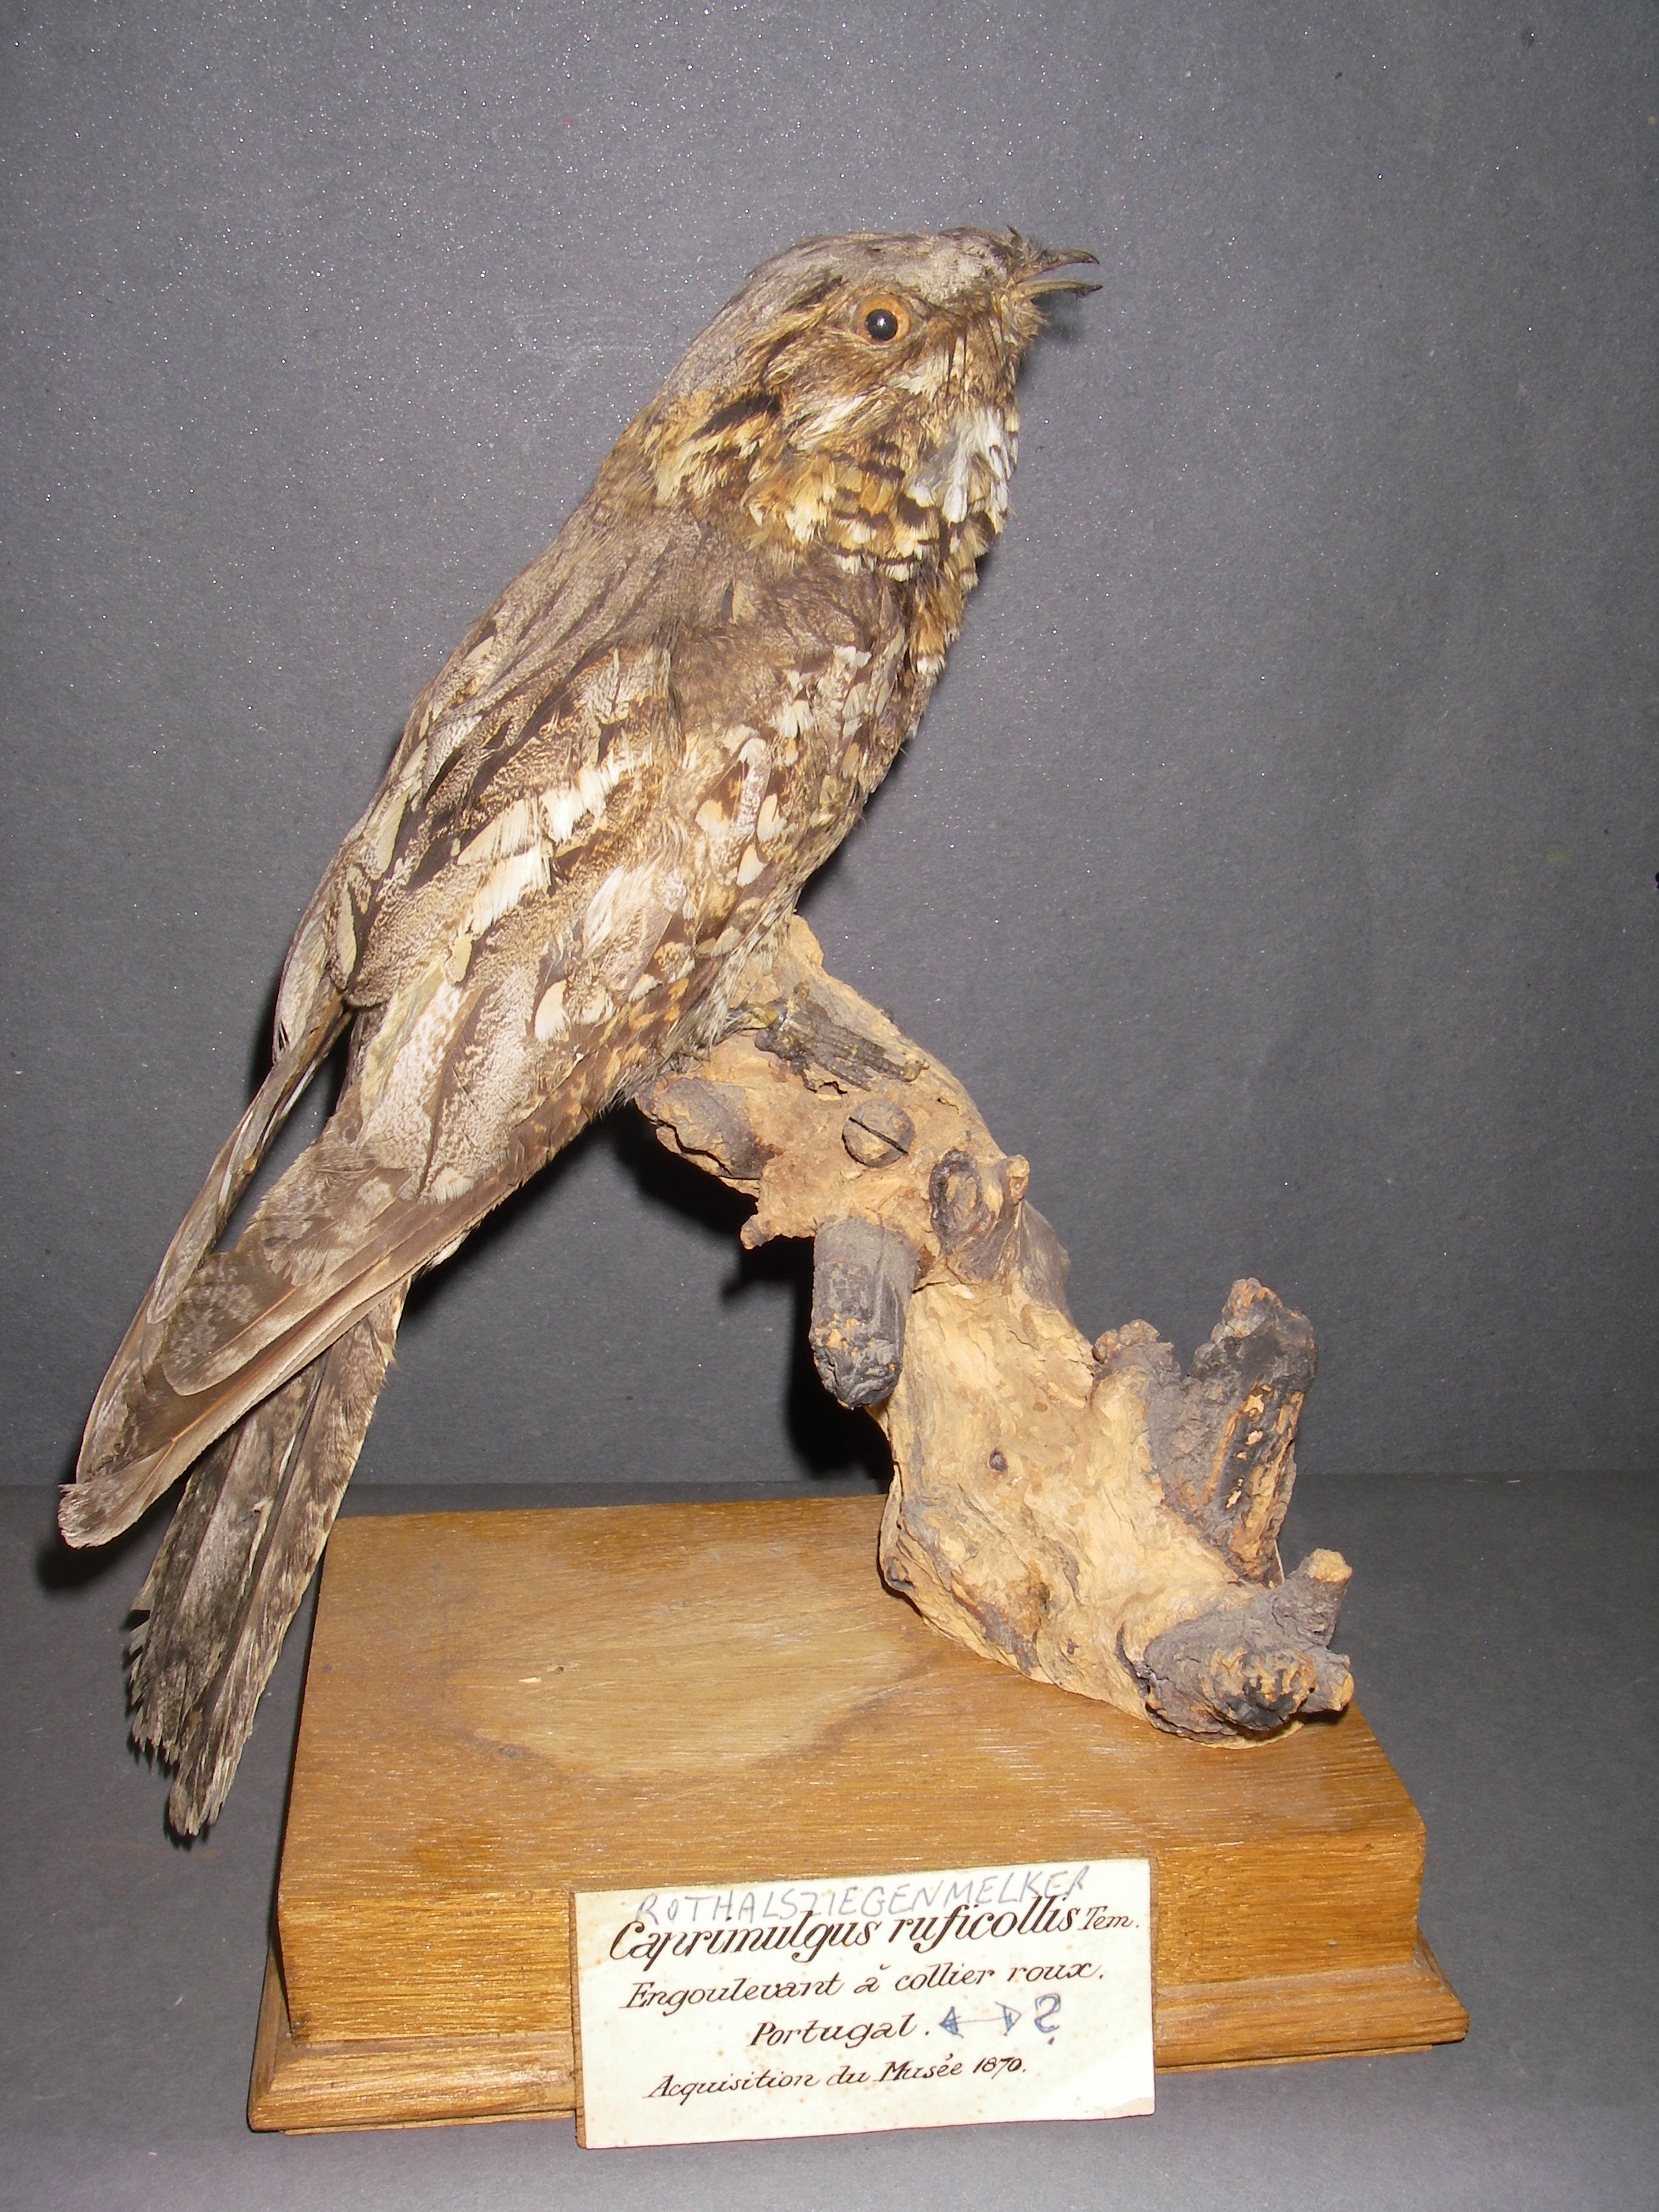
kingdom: Animalia
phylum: Chordata
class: Aves
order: Caprimulgiformes
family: Caprimulgidae
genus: Caprimulgus
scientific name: Caprimulgus ruficollis
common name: Red-necked nightjar
